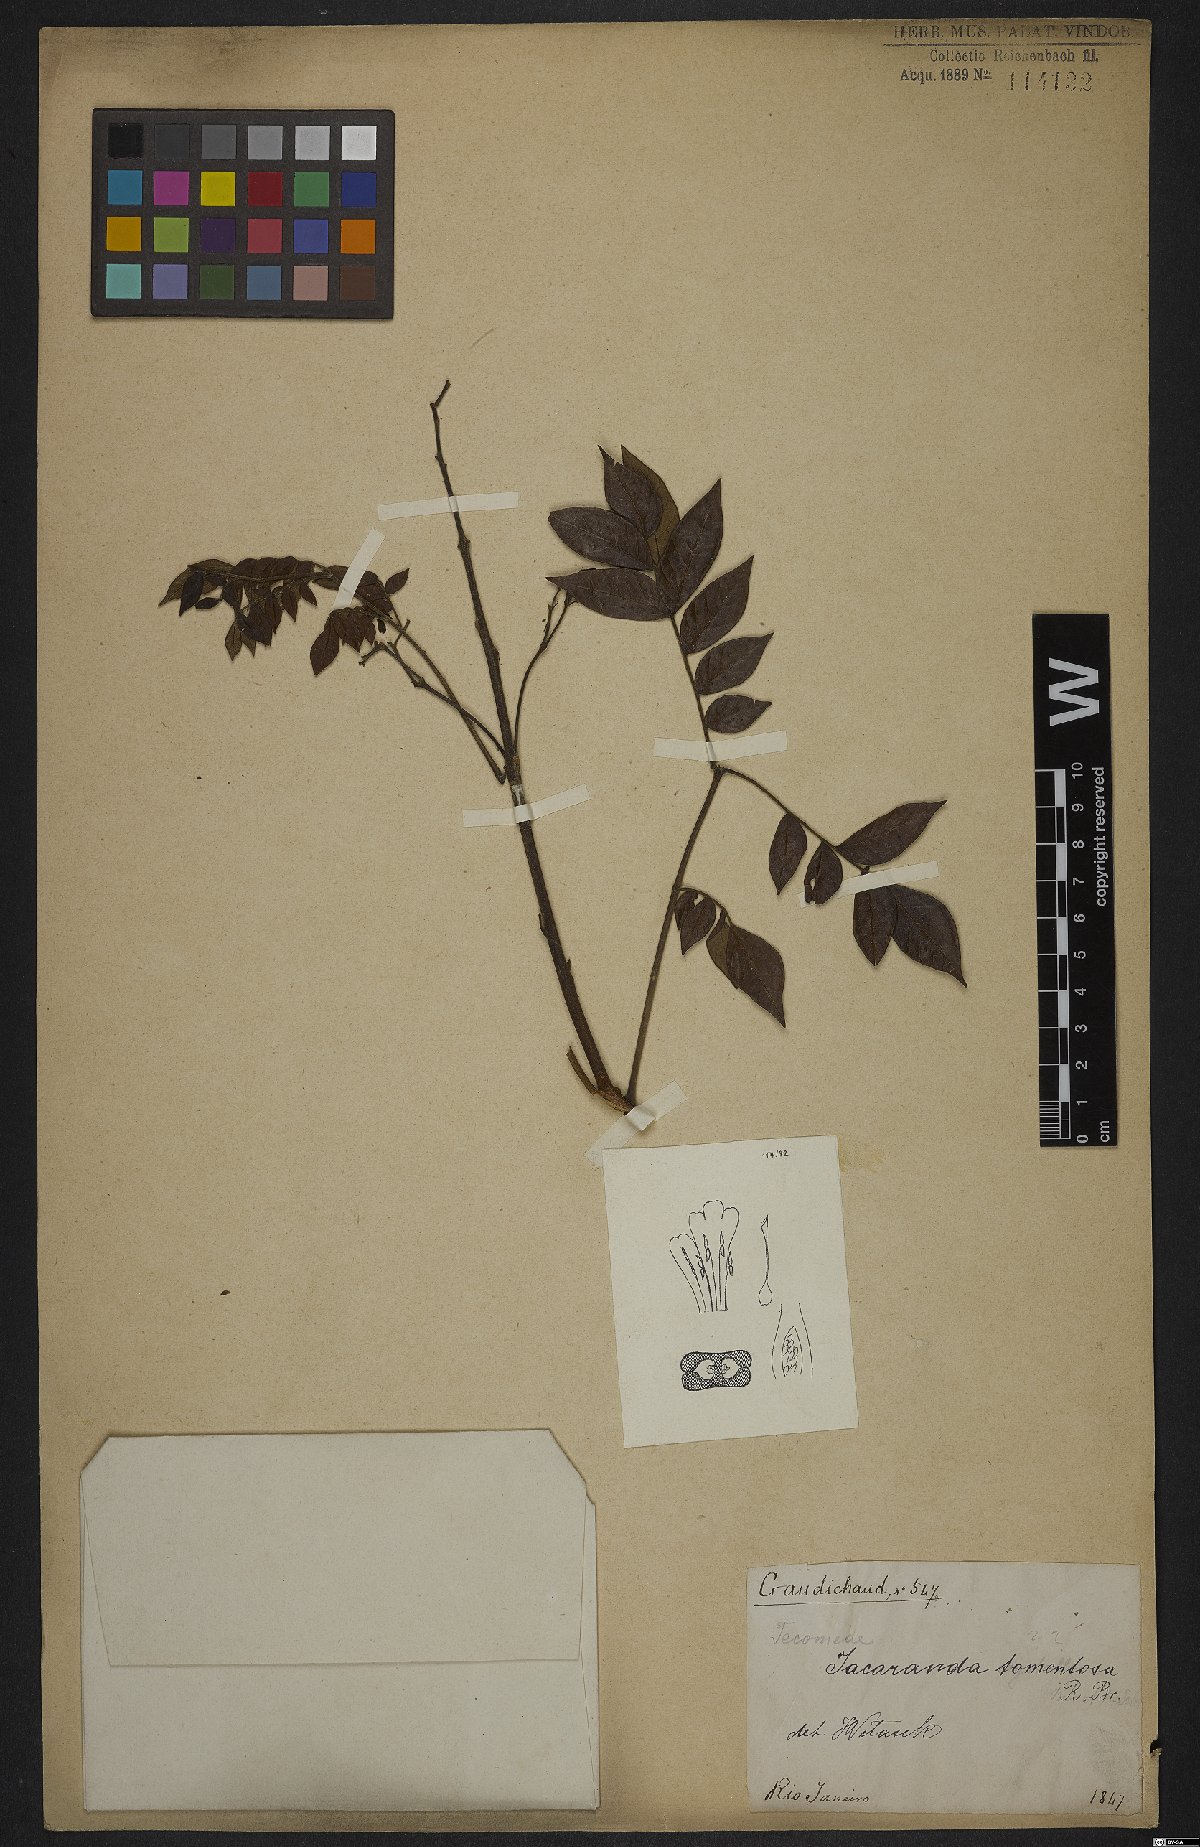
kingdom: Plantae
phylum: Tracheophyta
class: Magnoliopsida
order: Lamiales
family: Bignoniaceae
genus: Jacaranda
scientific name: Jacaranda jasminoides
